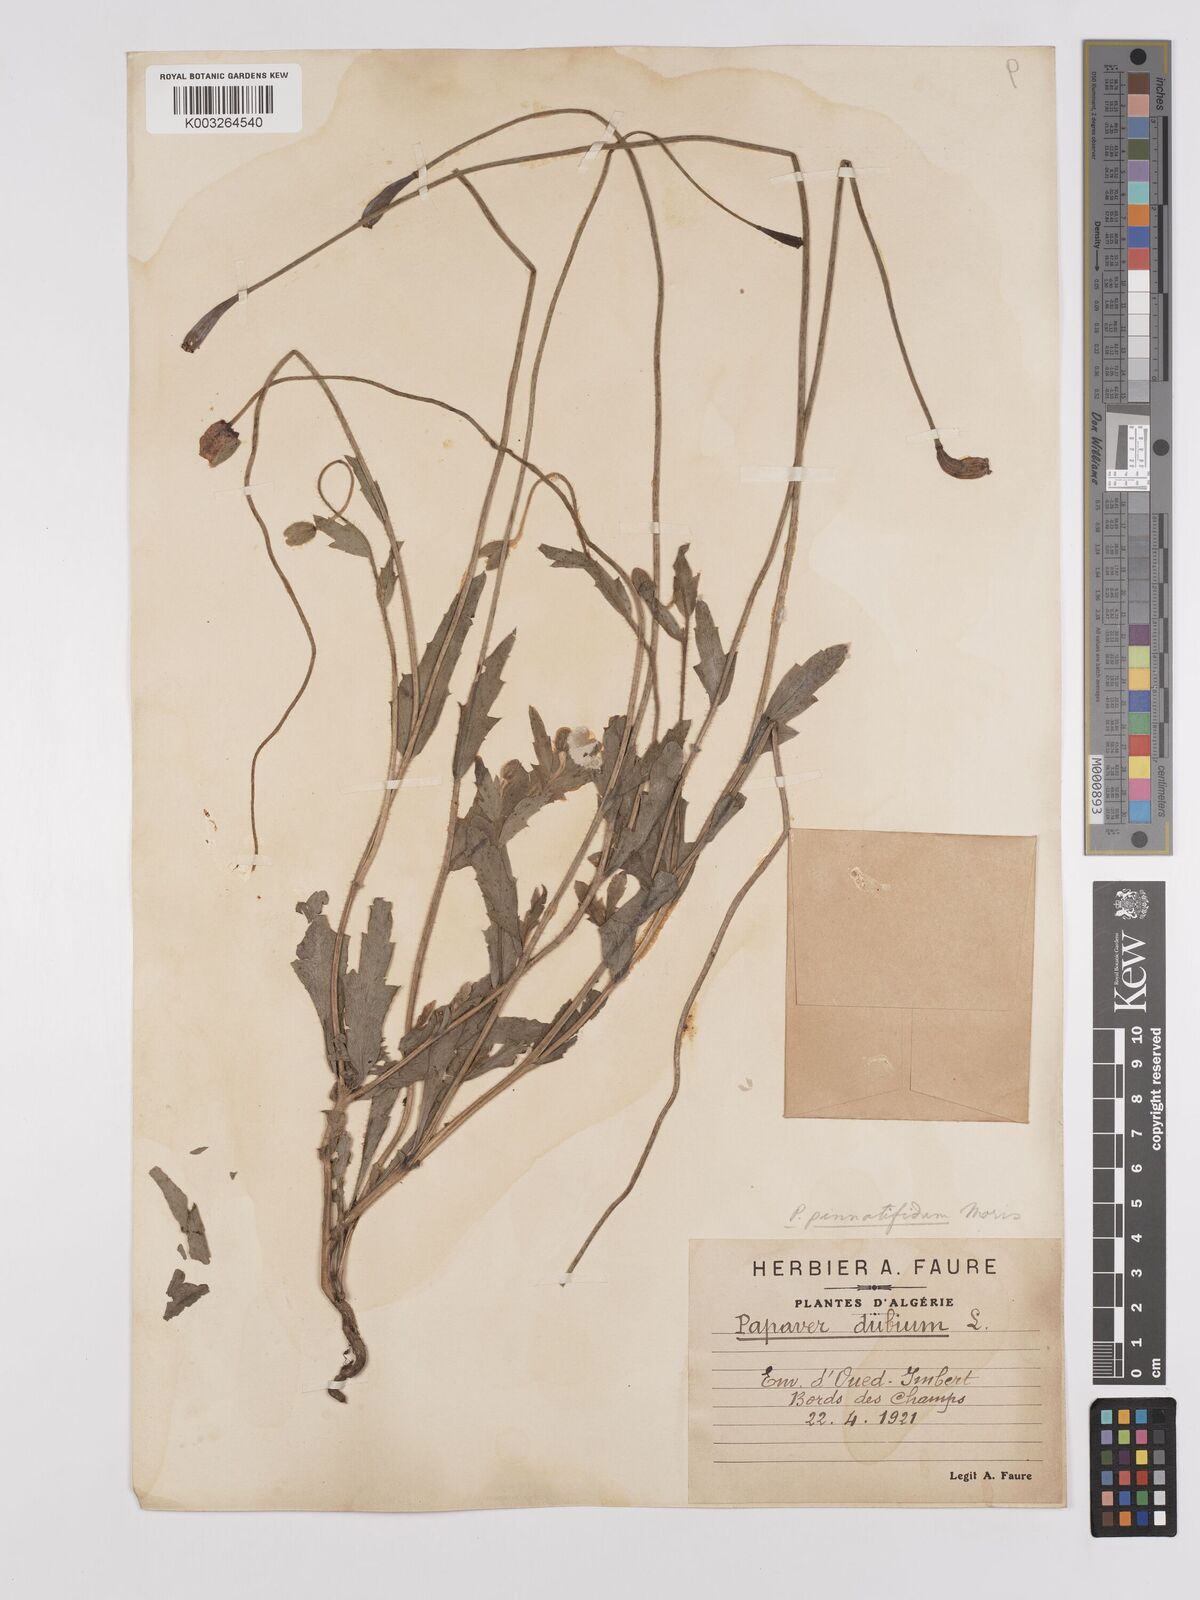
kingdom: Plantae
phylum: Tracheophyta
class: Magnoliopsida
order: Ranunculales
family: Papaveraceae
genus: Papaver
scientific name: Papaver pinnatifidum
